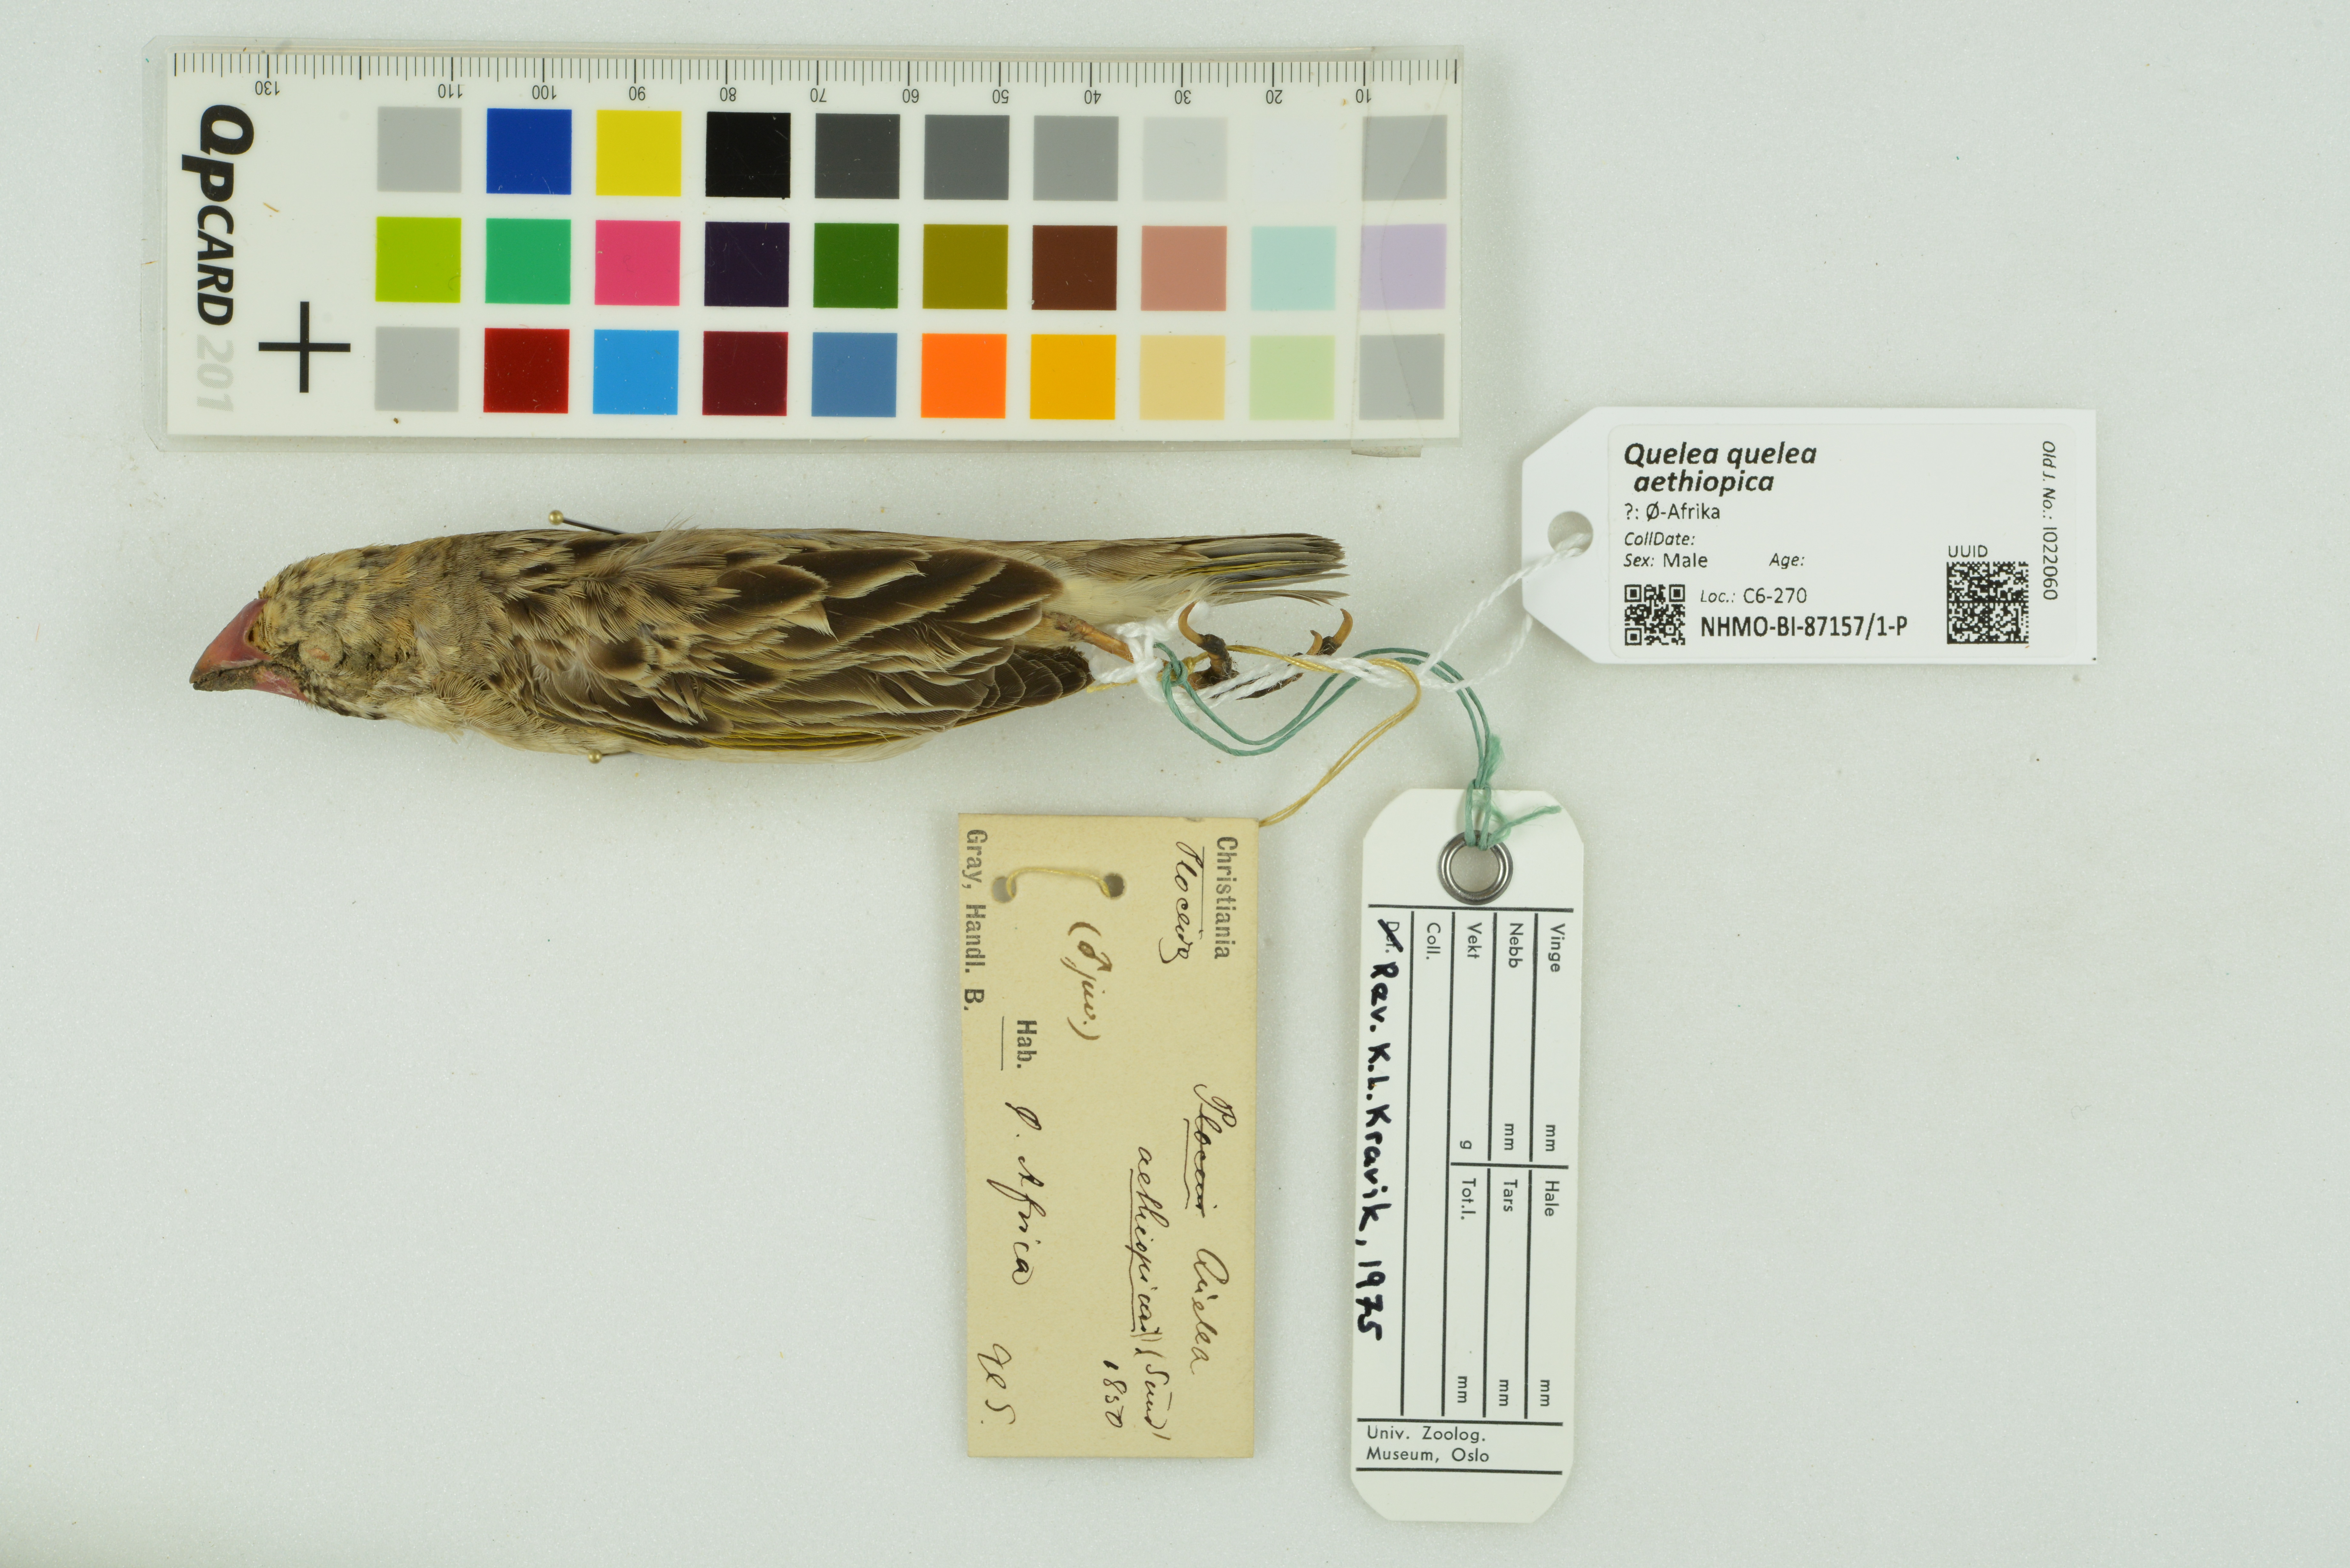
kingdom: Animalia
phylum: Chordata
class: Aves
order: Passeriformes
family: Ploceidae
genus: Quelea
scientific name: Quelea quelea
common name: Red-billed quelea
